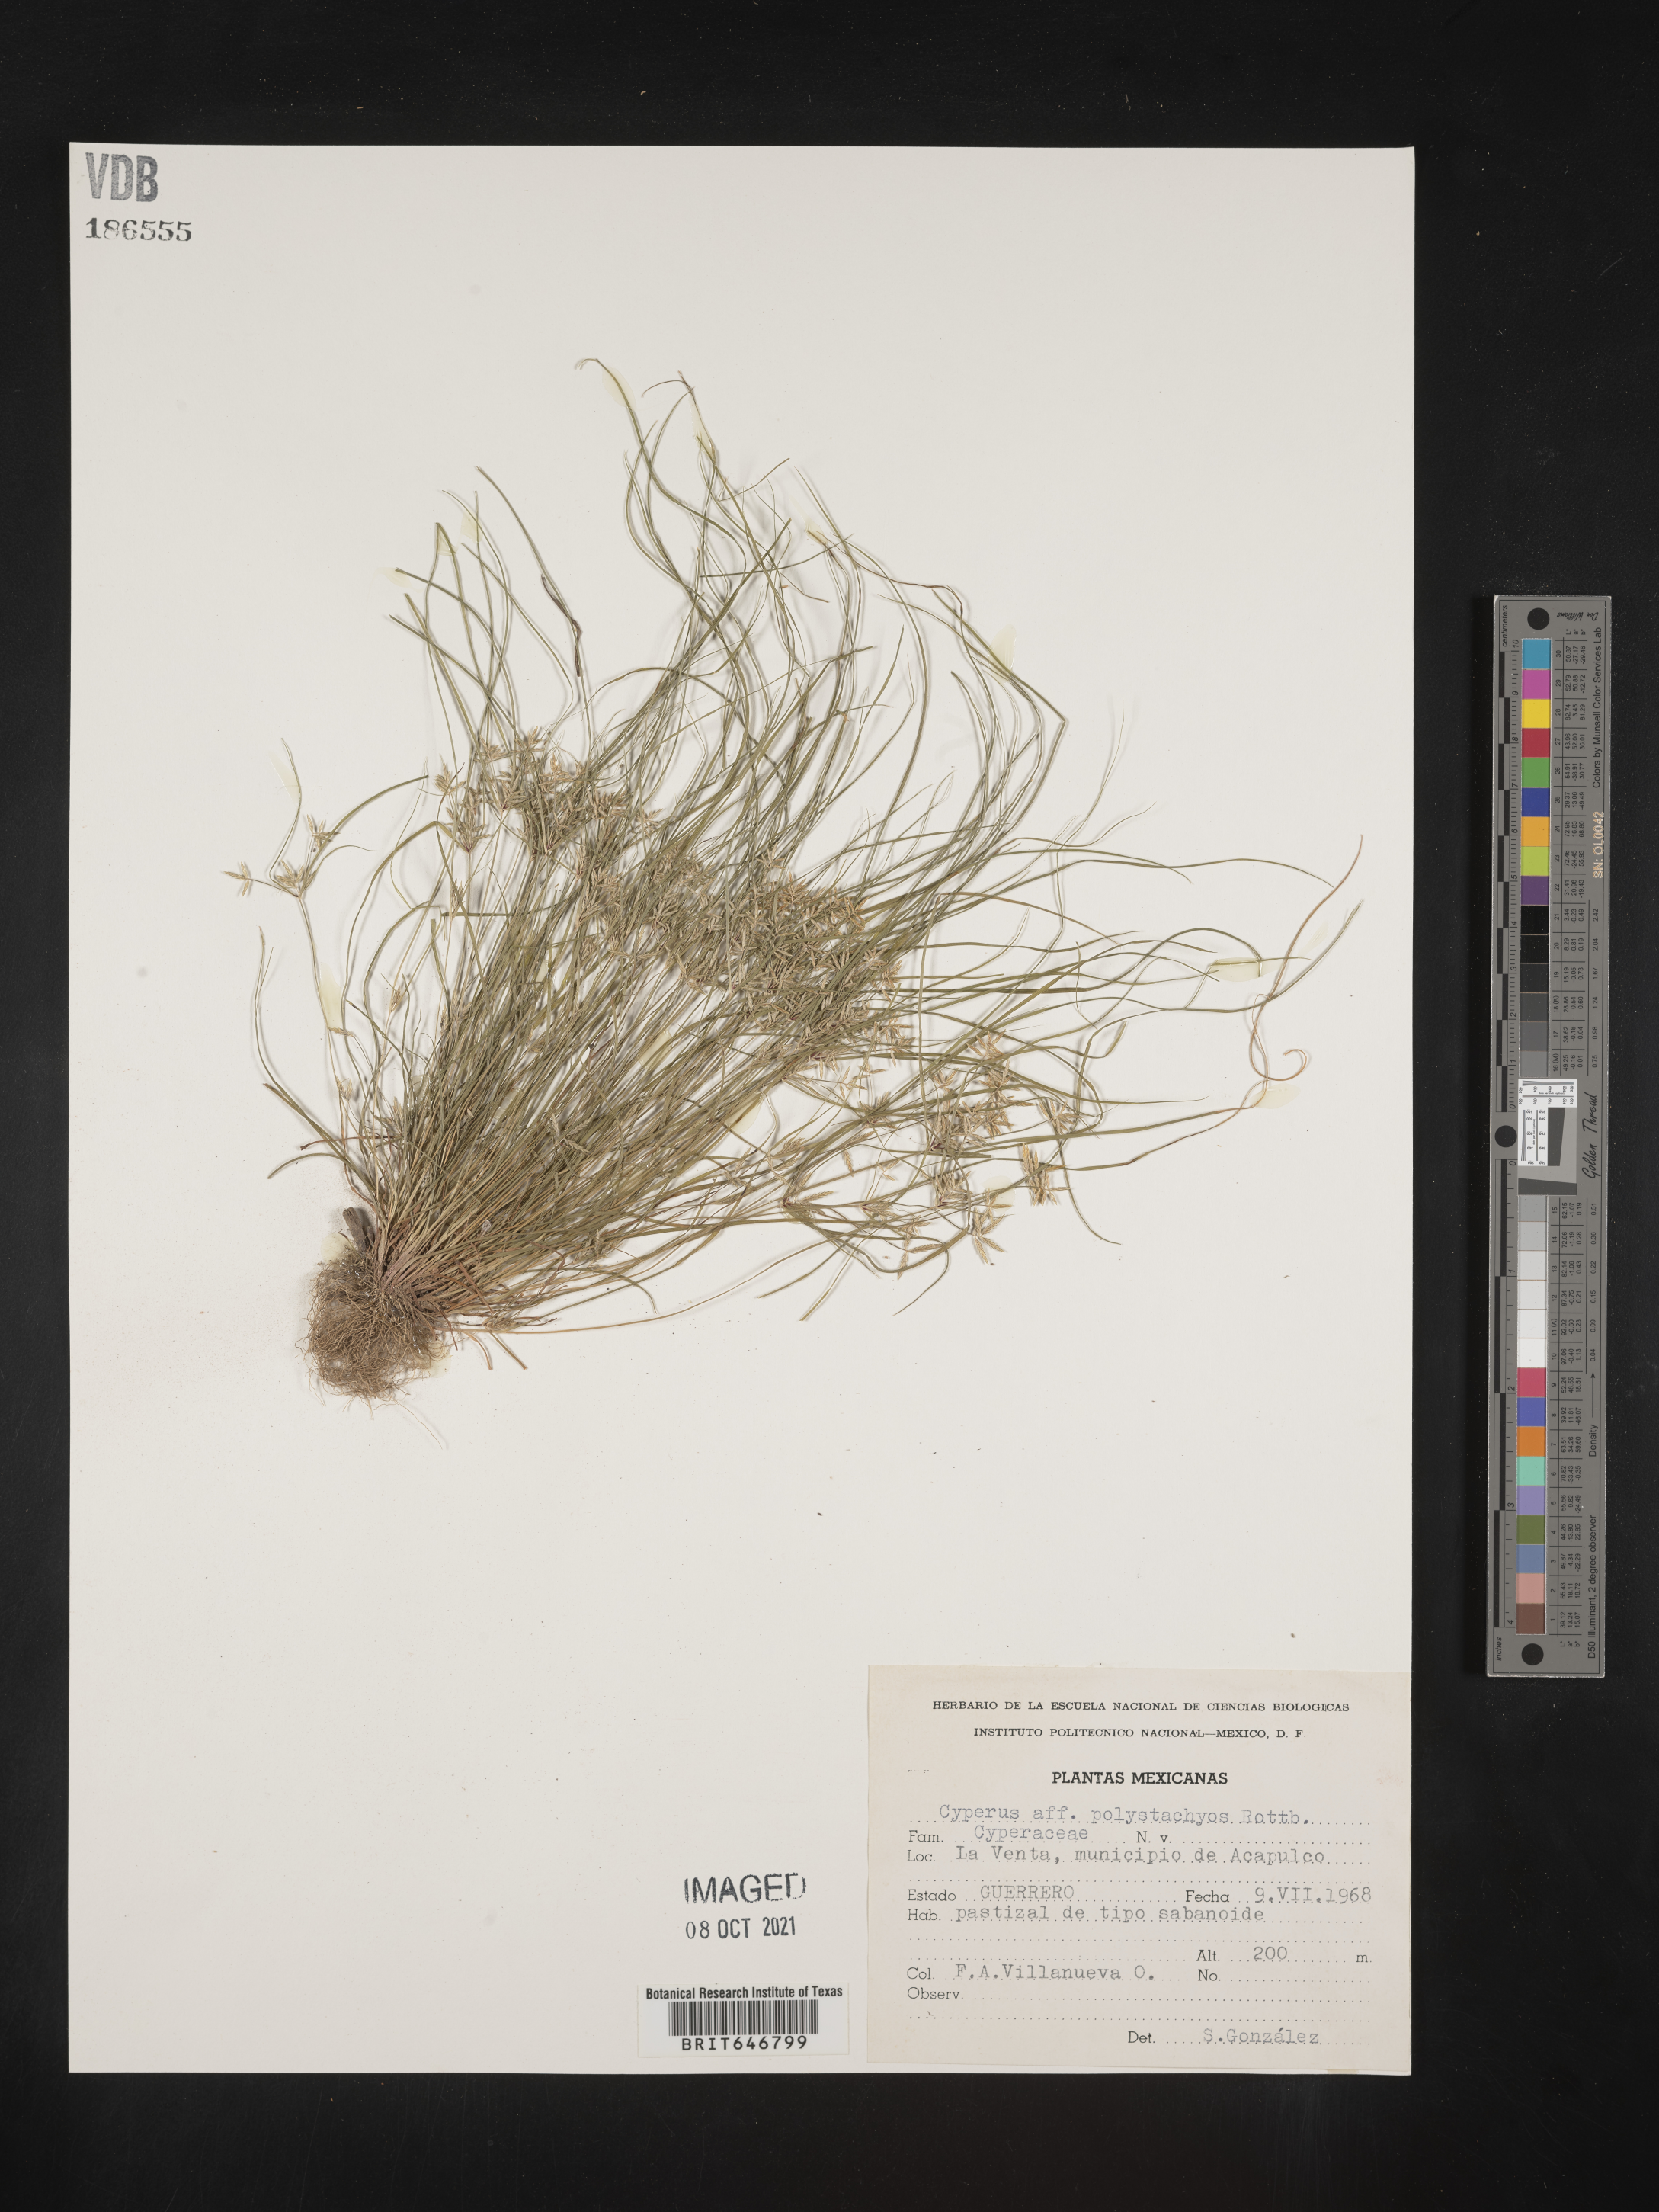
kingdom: Plantae
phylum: Tracheophyta
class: Liliopsida
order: Poales
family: Cyperaceae
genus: Cyperus
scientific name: Cyperus
